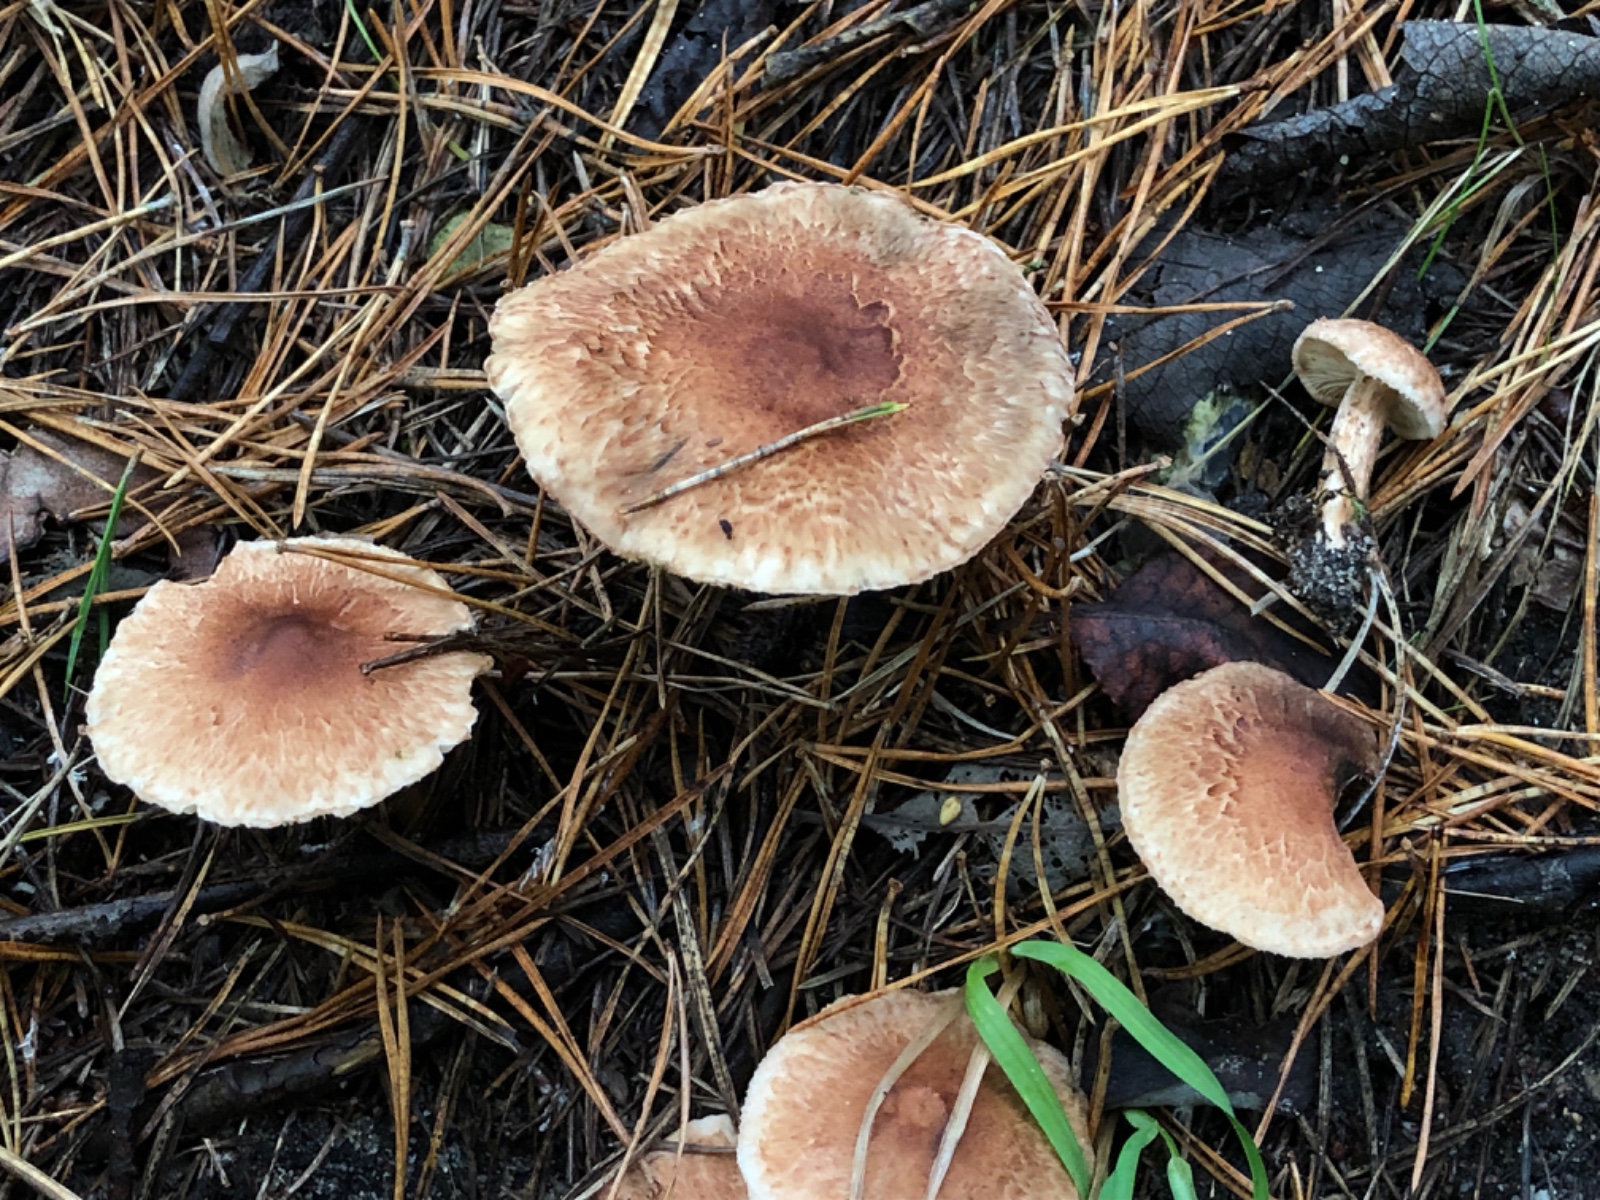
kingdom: Fungi
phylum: Basidiomycota
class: Agaricomycetes
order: Agaricales
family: Tricholomataceae
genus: Tricholoma
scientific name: Tricholoma vaccinum
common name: ko-ridderhat
